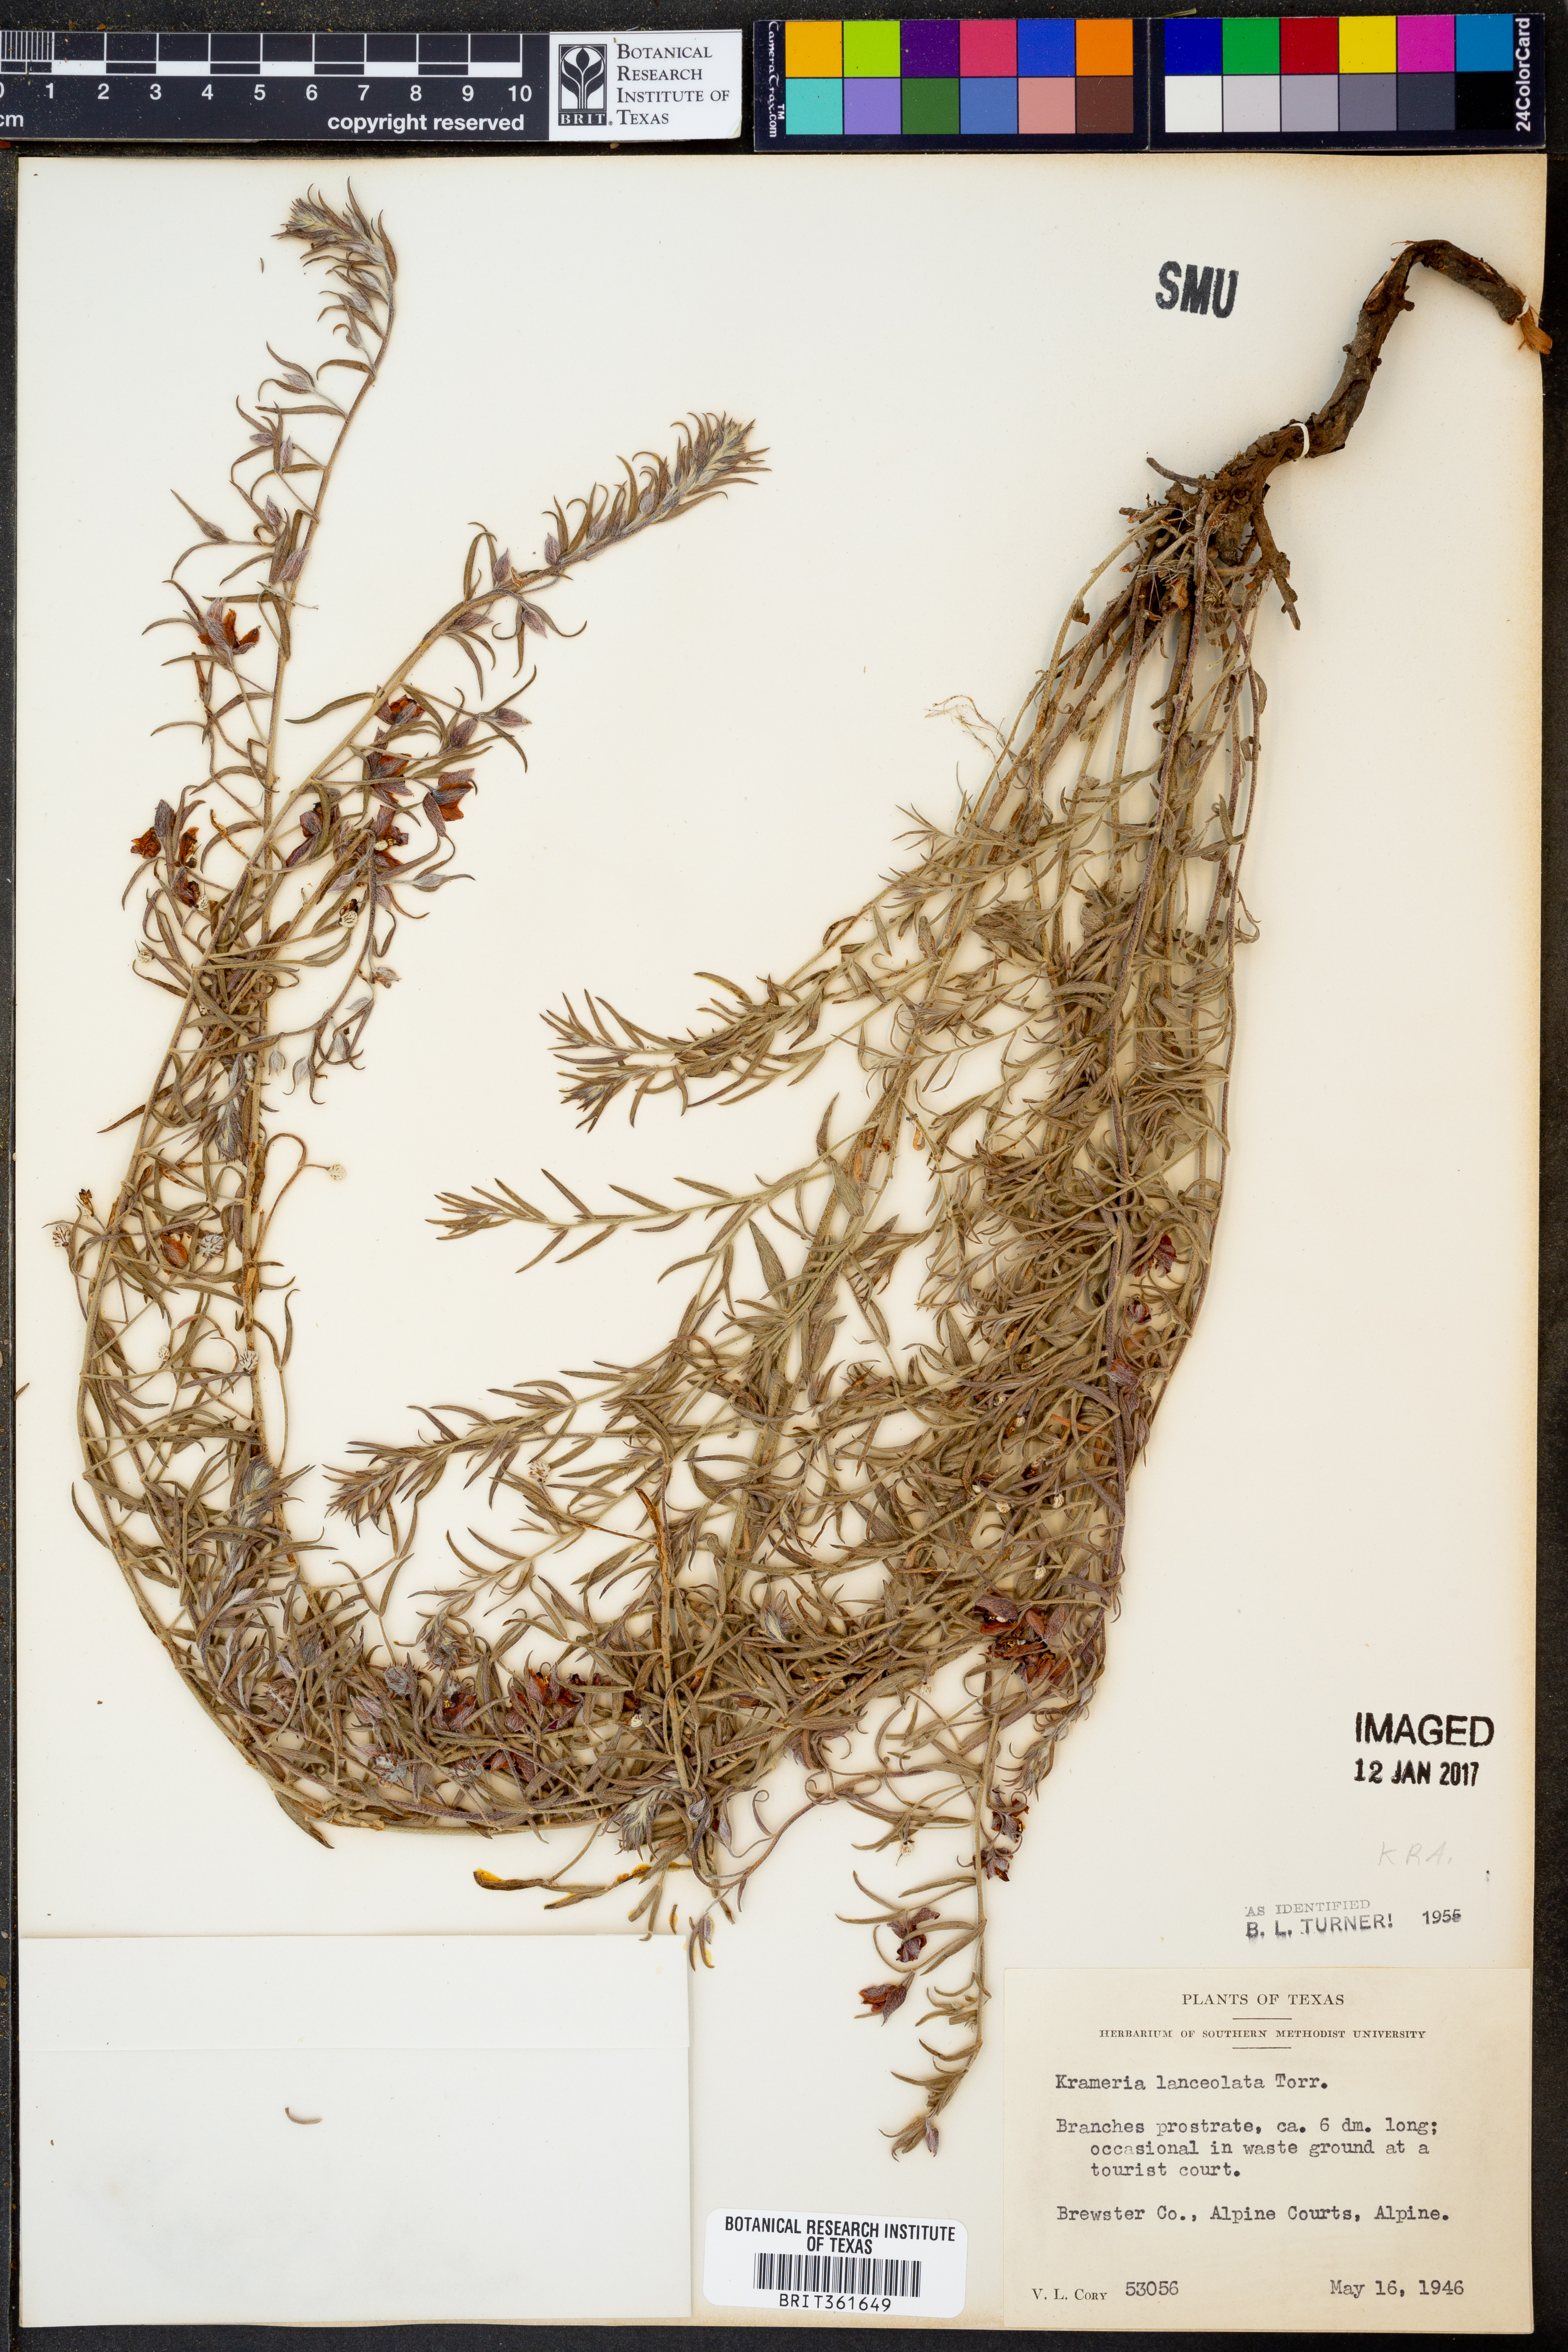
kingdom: Plantae
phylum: Tracheophyta
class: Magnoliopsida
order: Zygophyllales
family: Krameriaceae
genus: Krameria
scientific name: Krameria lanceolata
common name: Ratany
